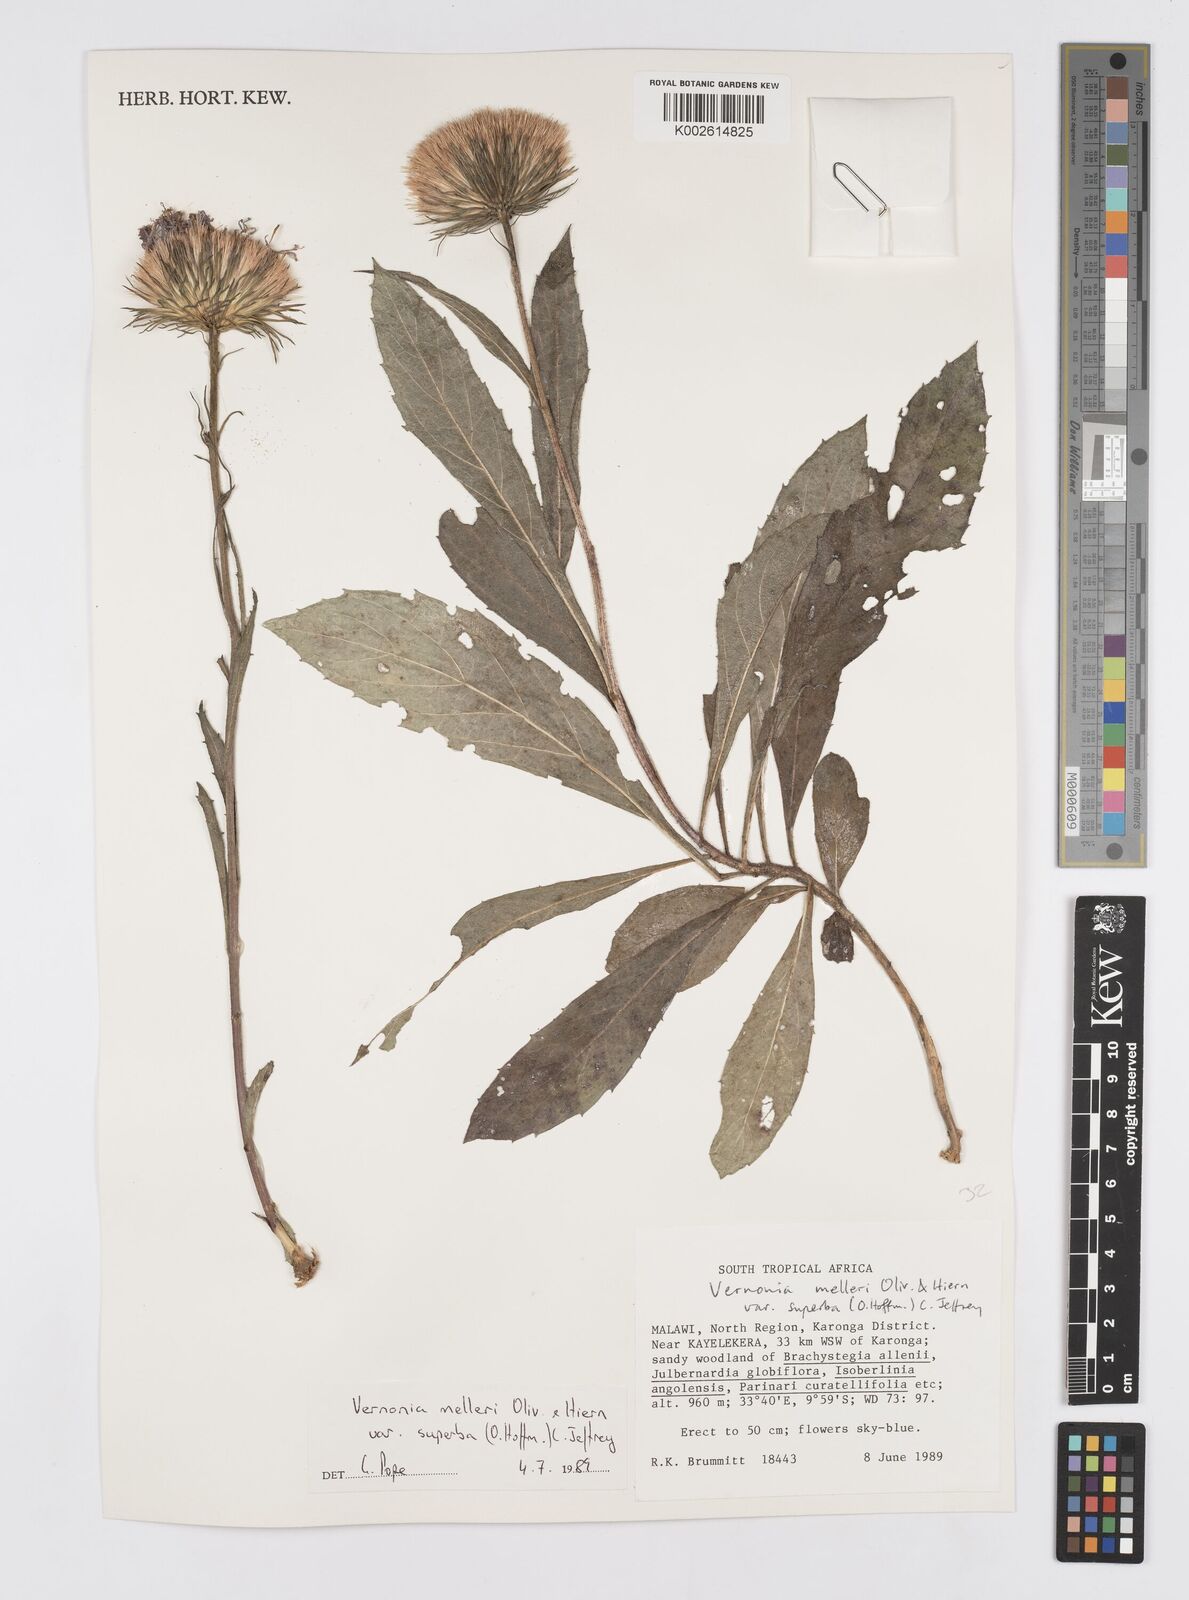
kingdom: Plantae
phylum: Tracheophyta
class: Magnoliopsida
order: Asterales
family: Asteraceae
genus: Linzia
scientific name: Linzia melleri
